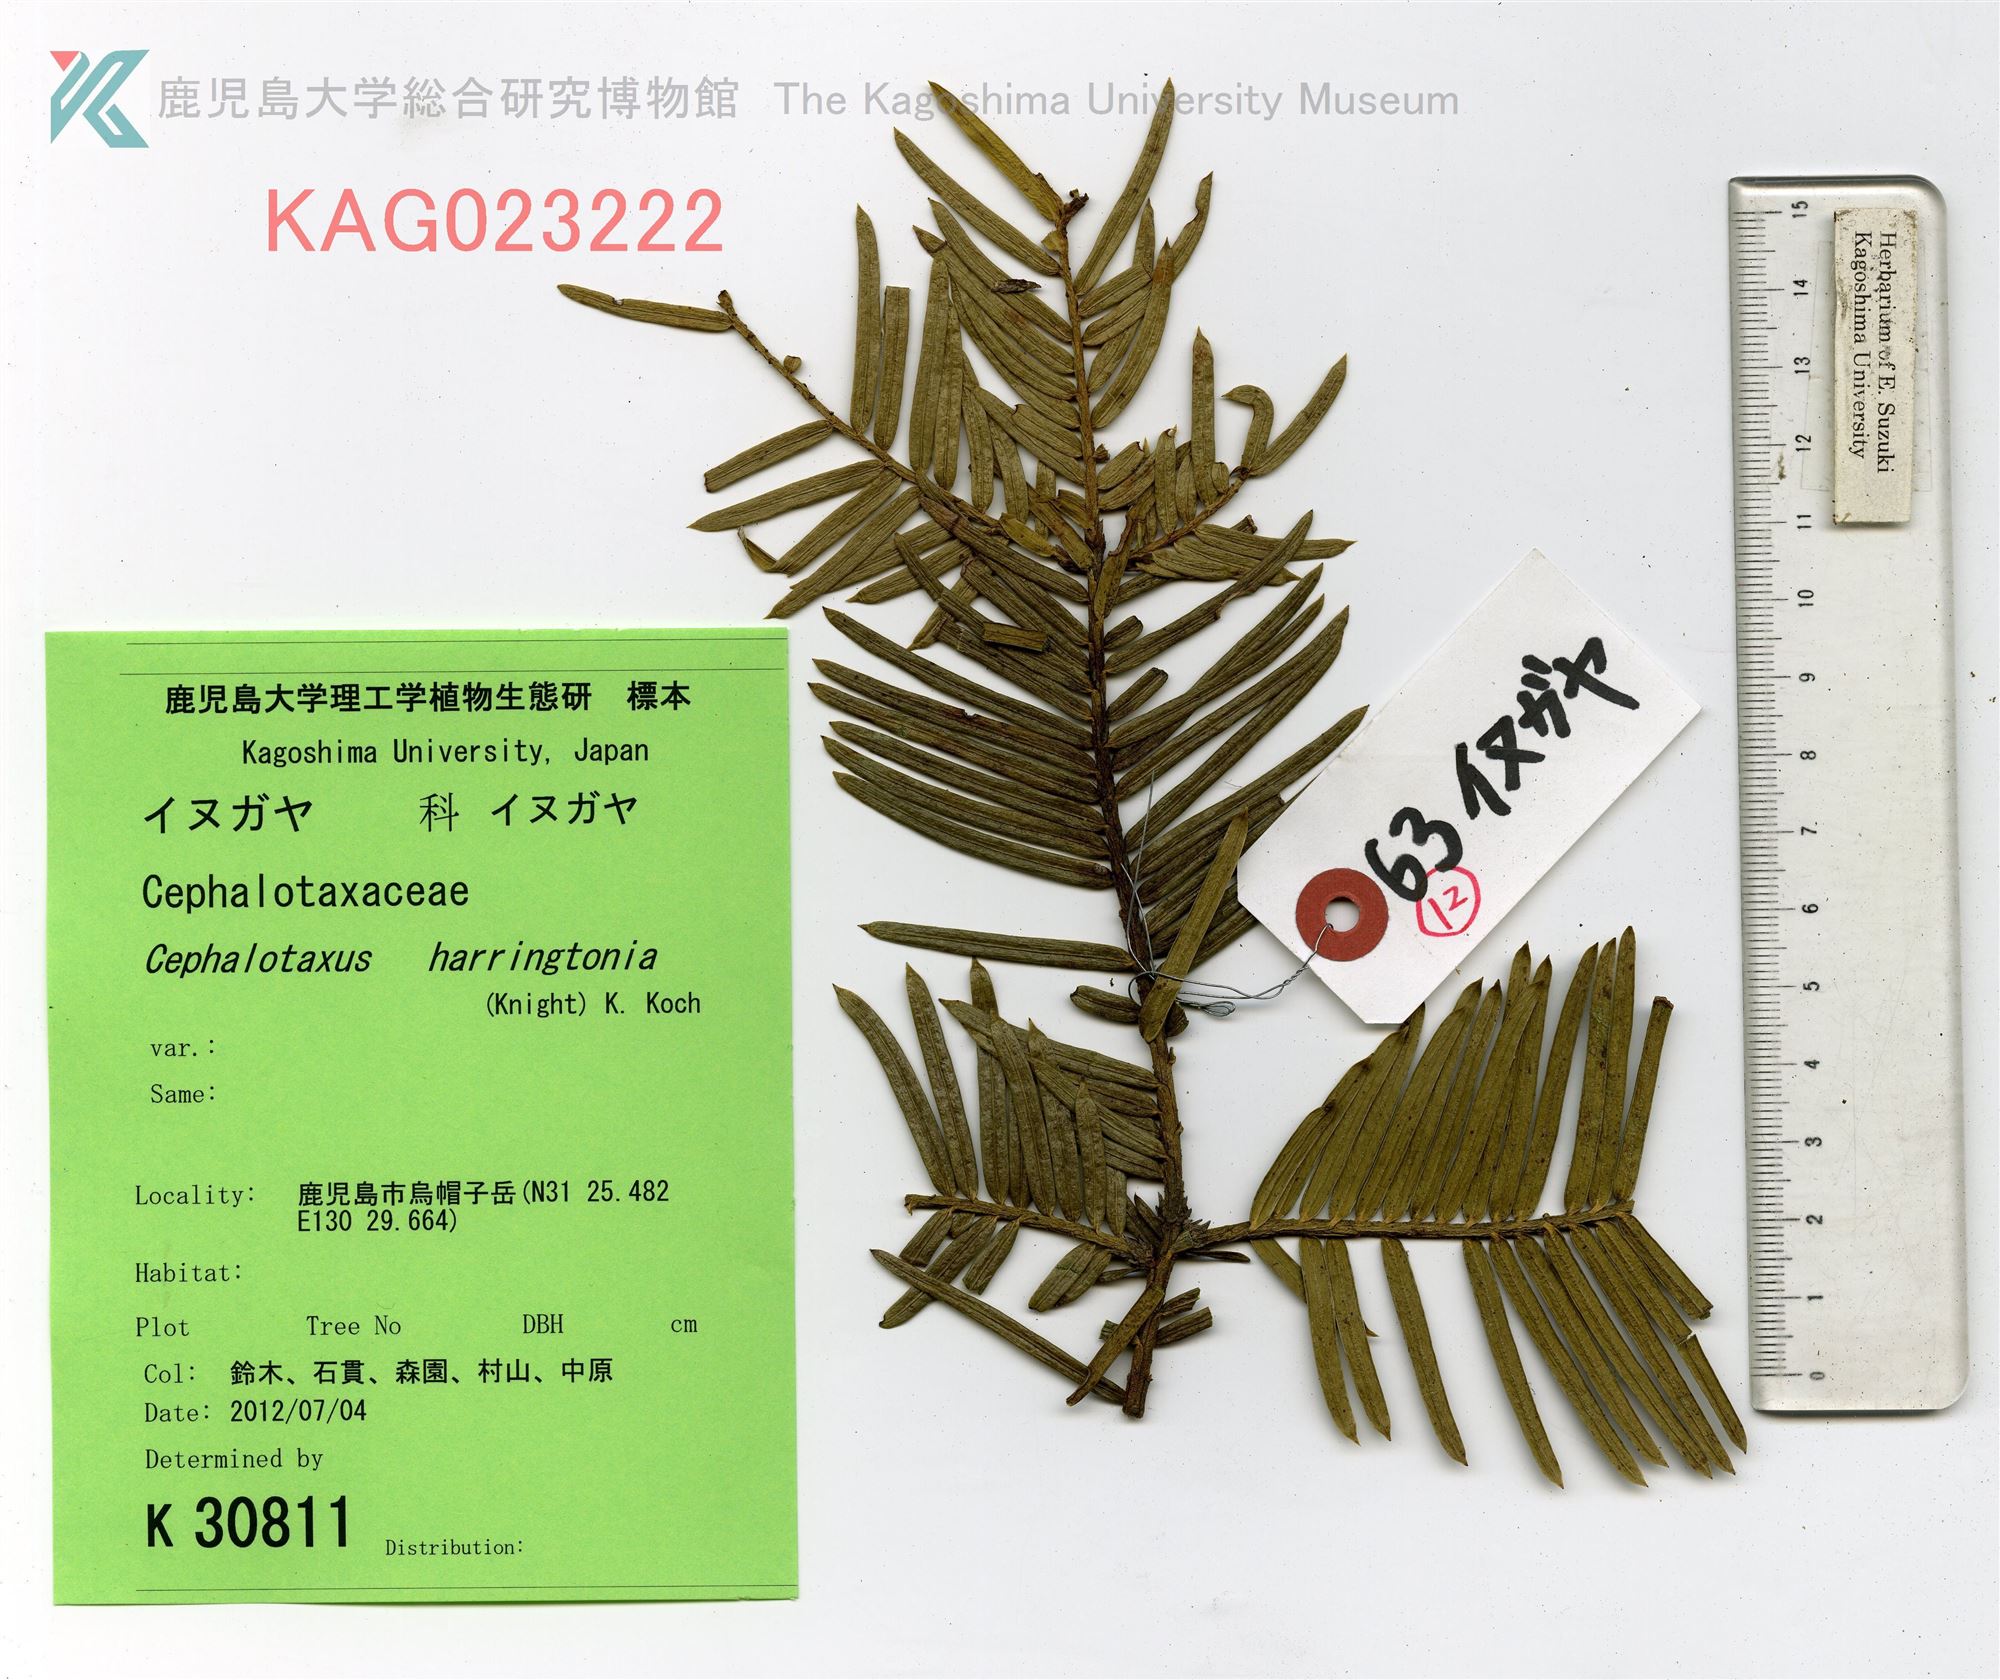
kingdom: Plantae
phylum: Tracheophyta
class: Pinopsida
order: Pinales
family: Cephalotaxaceae
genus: Cephalotaxus
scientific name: Cephalotaxus harringtonia
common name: イヌガヤ
